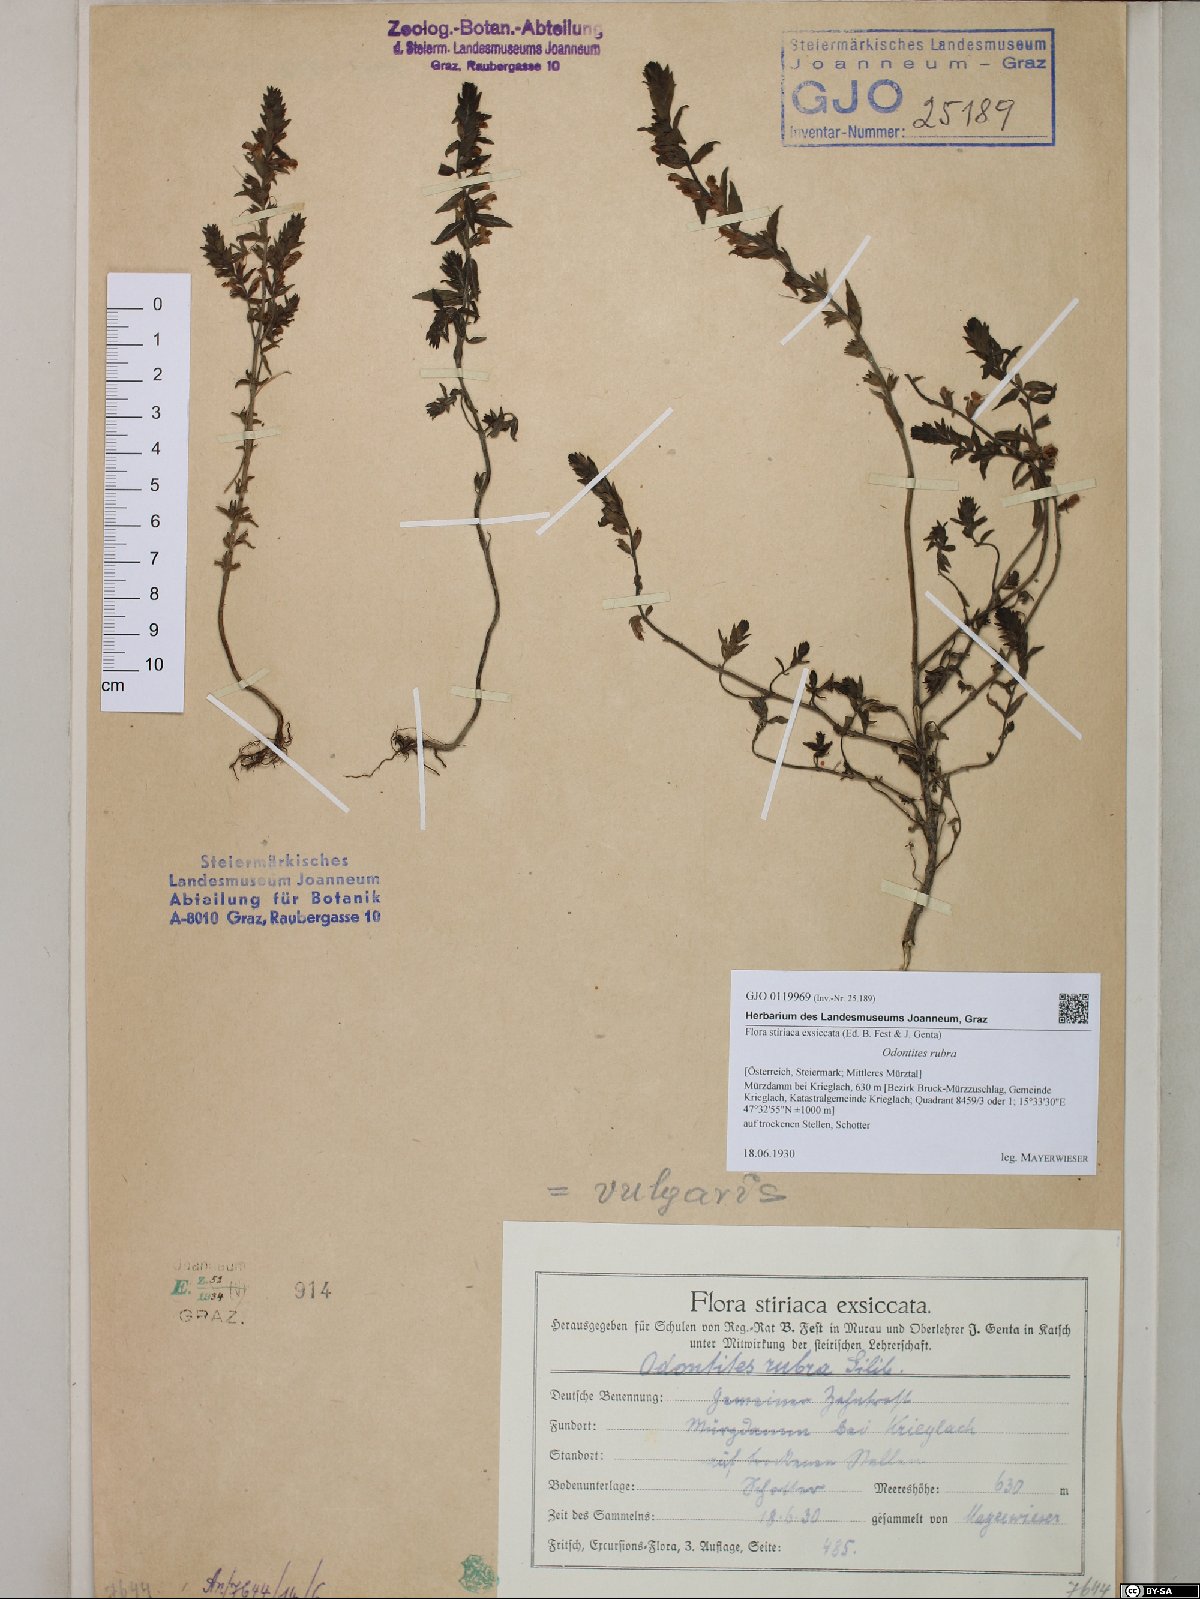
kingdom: Plantae
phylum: Tracheophyta
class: Magnoliopsida
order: Lamiales
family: Orobanchaceae
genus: Odontites
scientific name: Odontites vulgaris
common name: Broomrape
